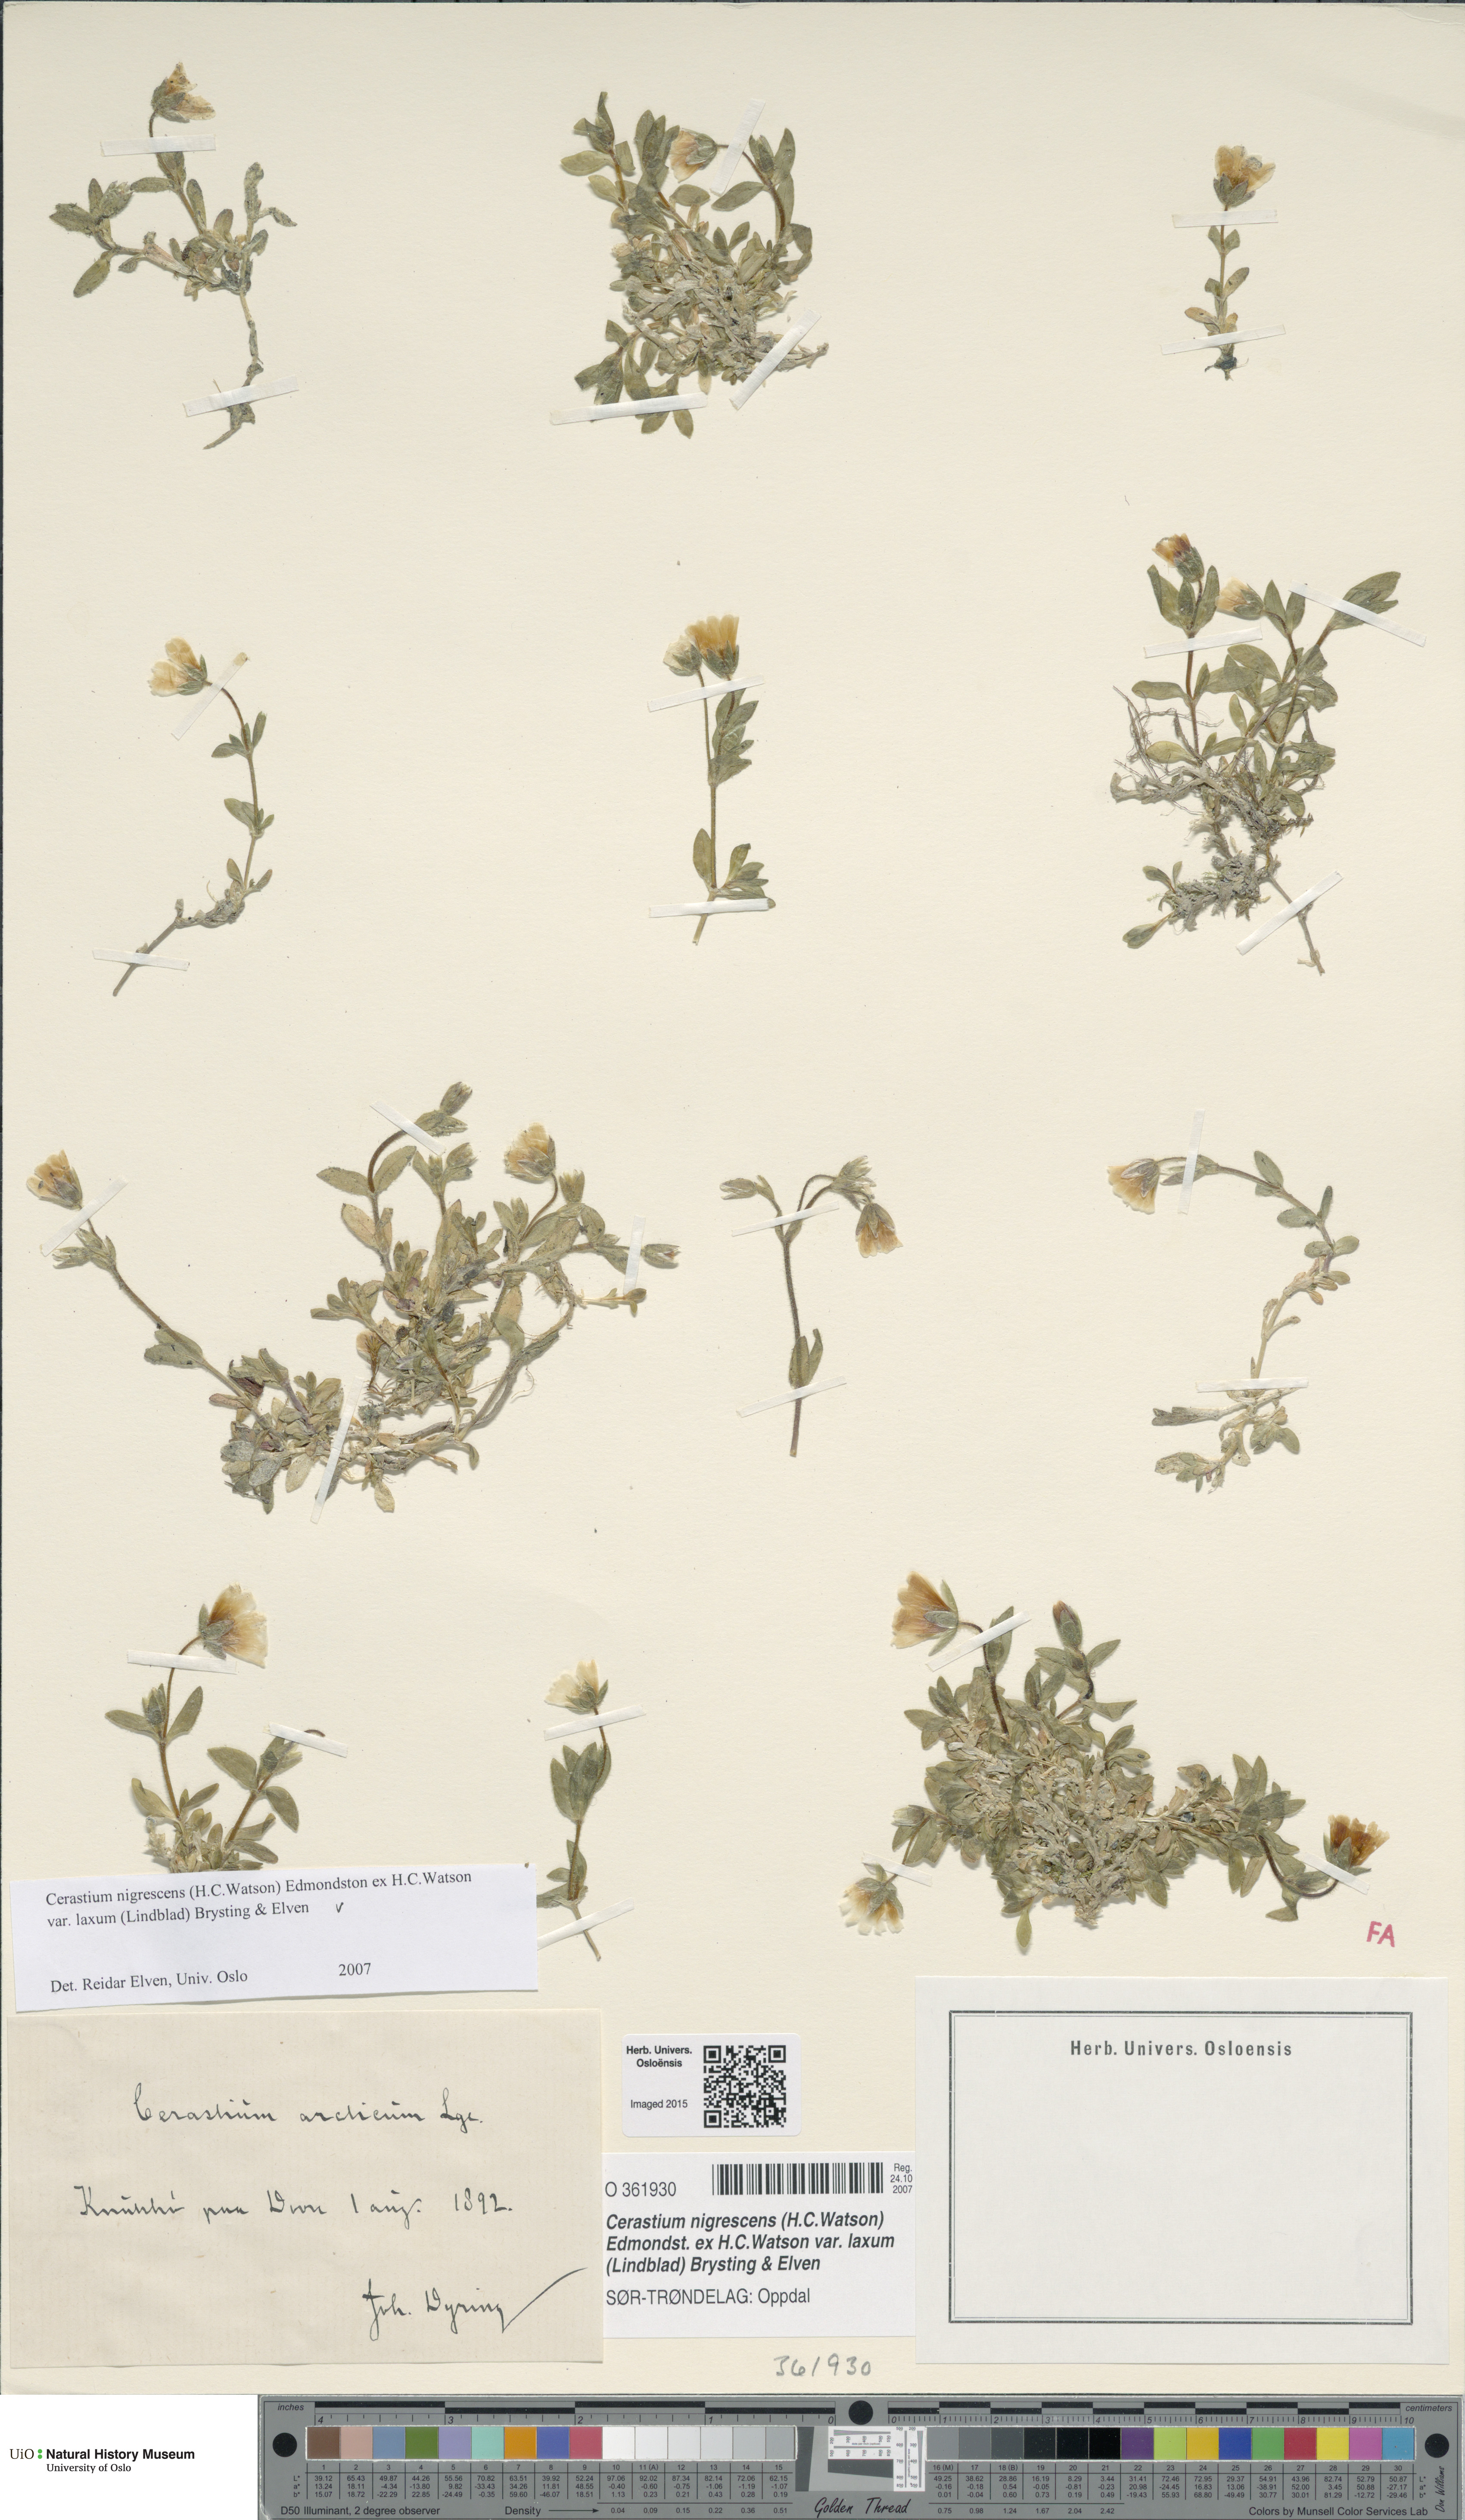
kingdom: Plantae
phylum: Tracheophyta
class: Magnoliopsida
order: Caryophyllales
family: Caryophyllaceae
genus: Cerastium
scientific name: Cerastium nigrescens
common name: Shetland mouse-ear
